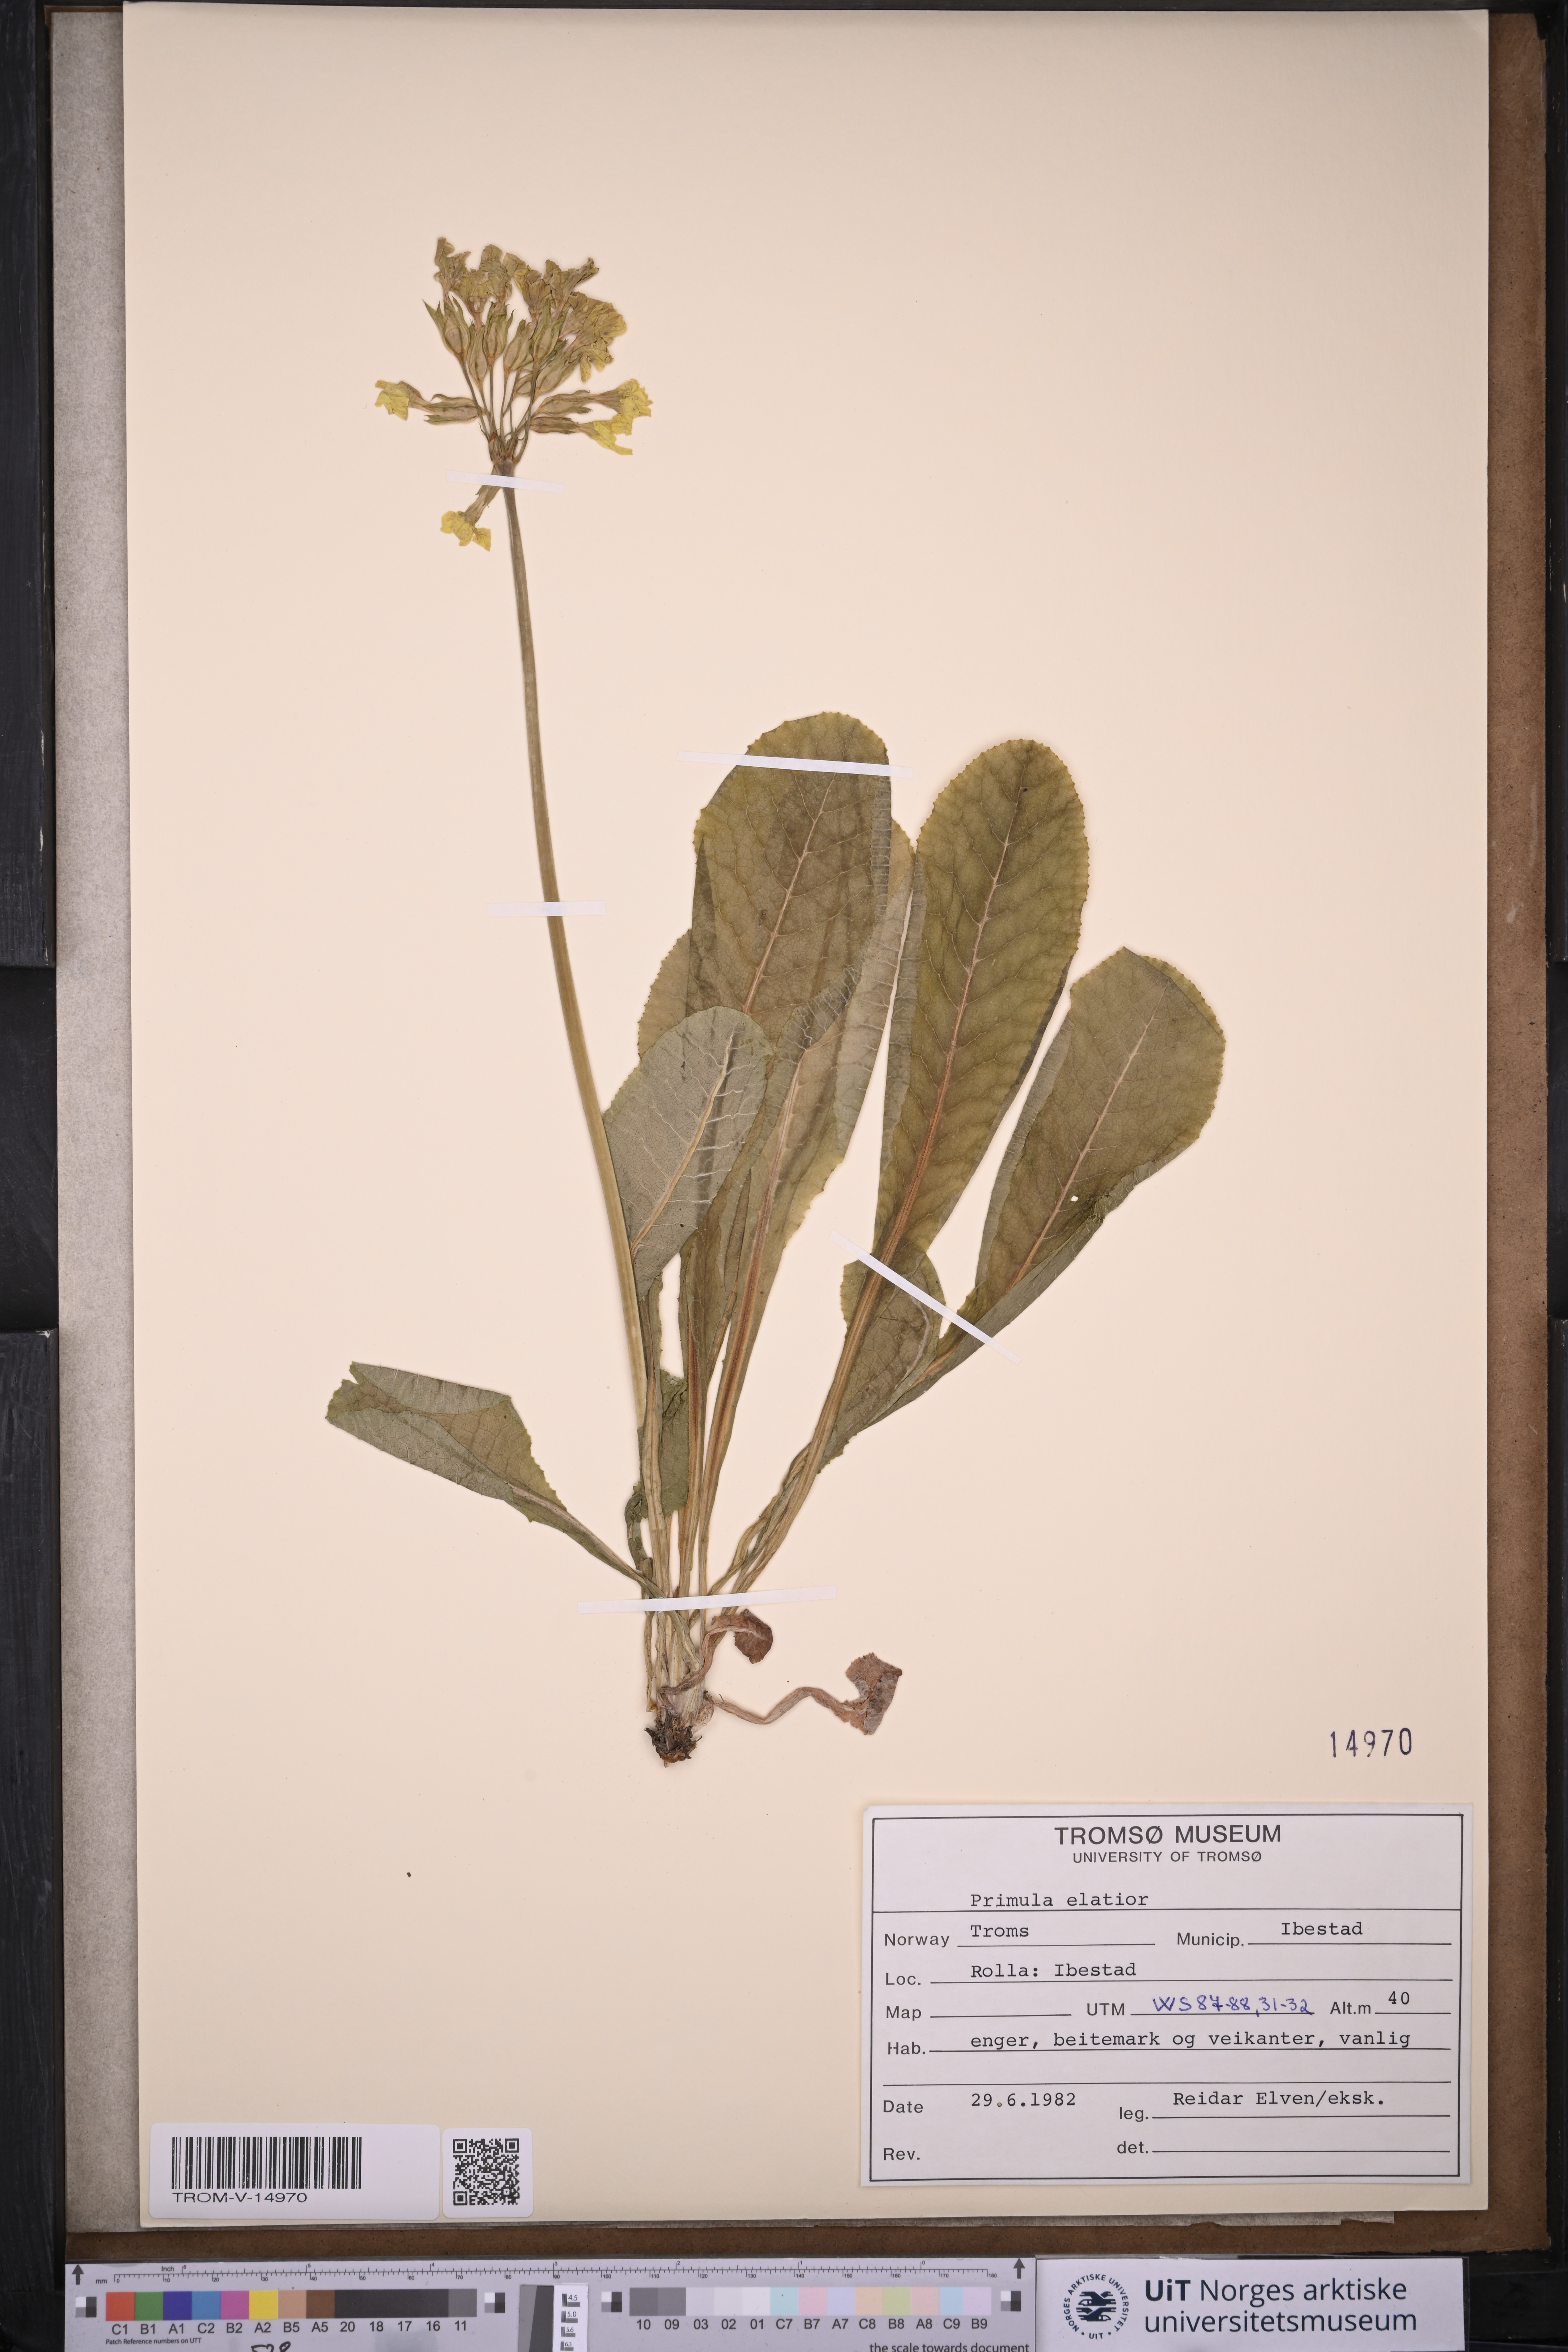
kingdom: Plantae
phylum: Tracheophyta
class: Magnoliopsida
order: Ericales
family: Primulaceae
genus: Primula
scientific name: Primula elatior
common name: Oxlip
